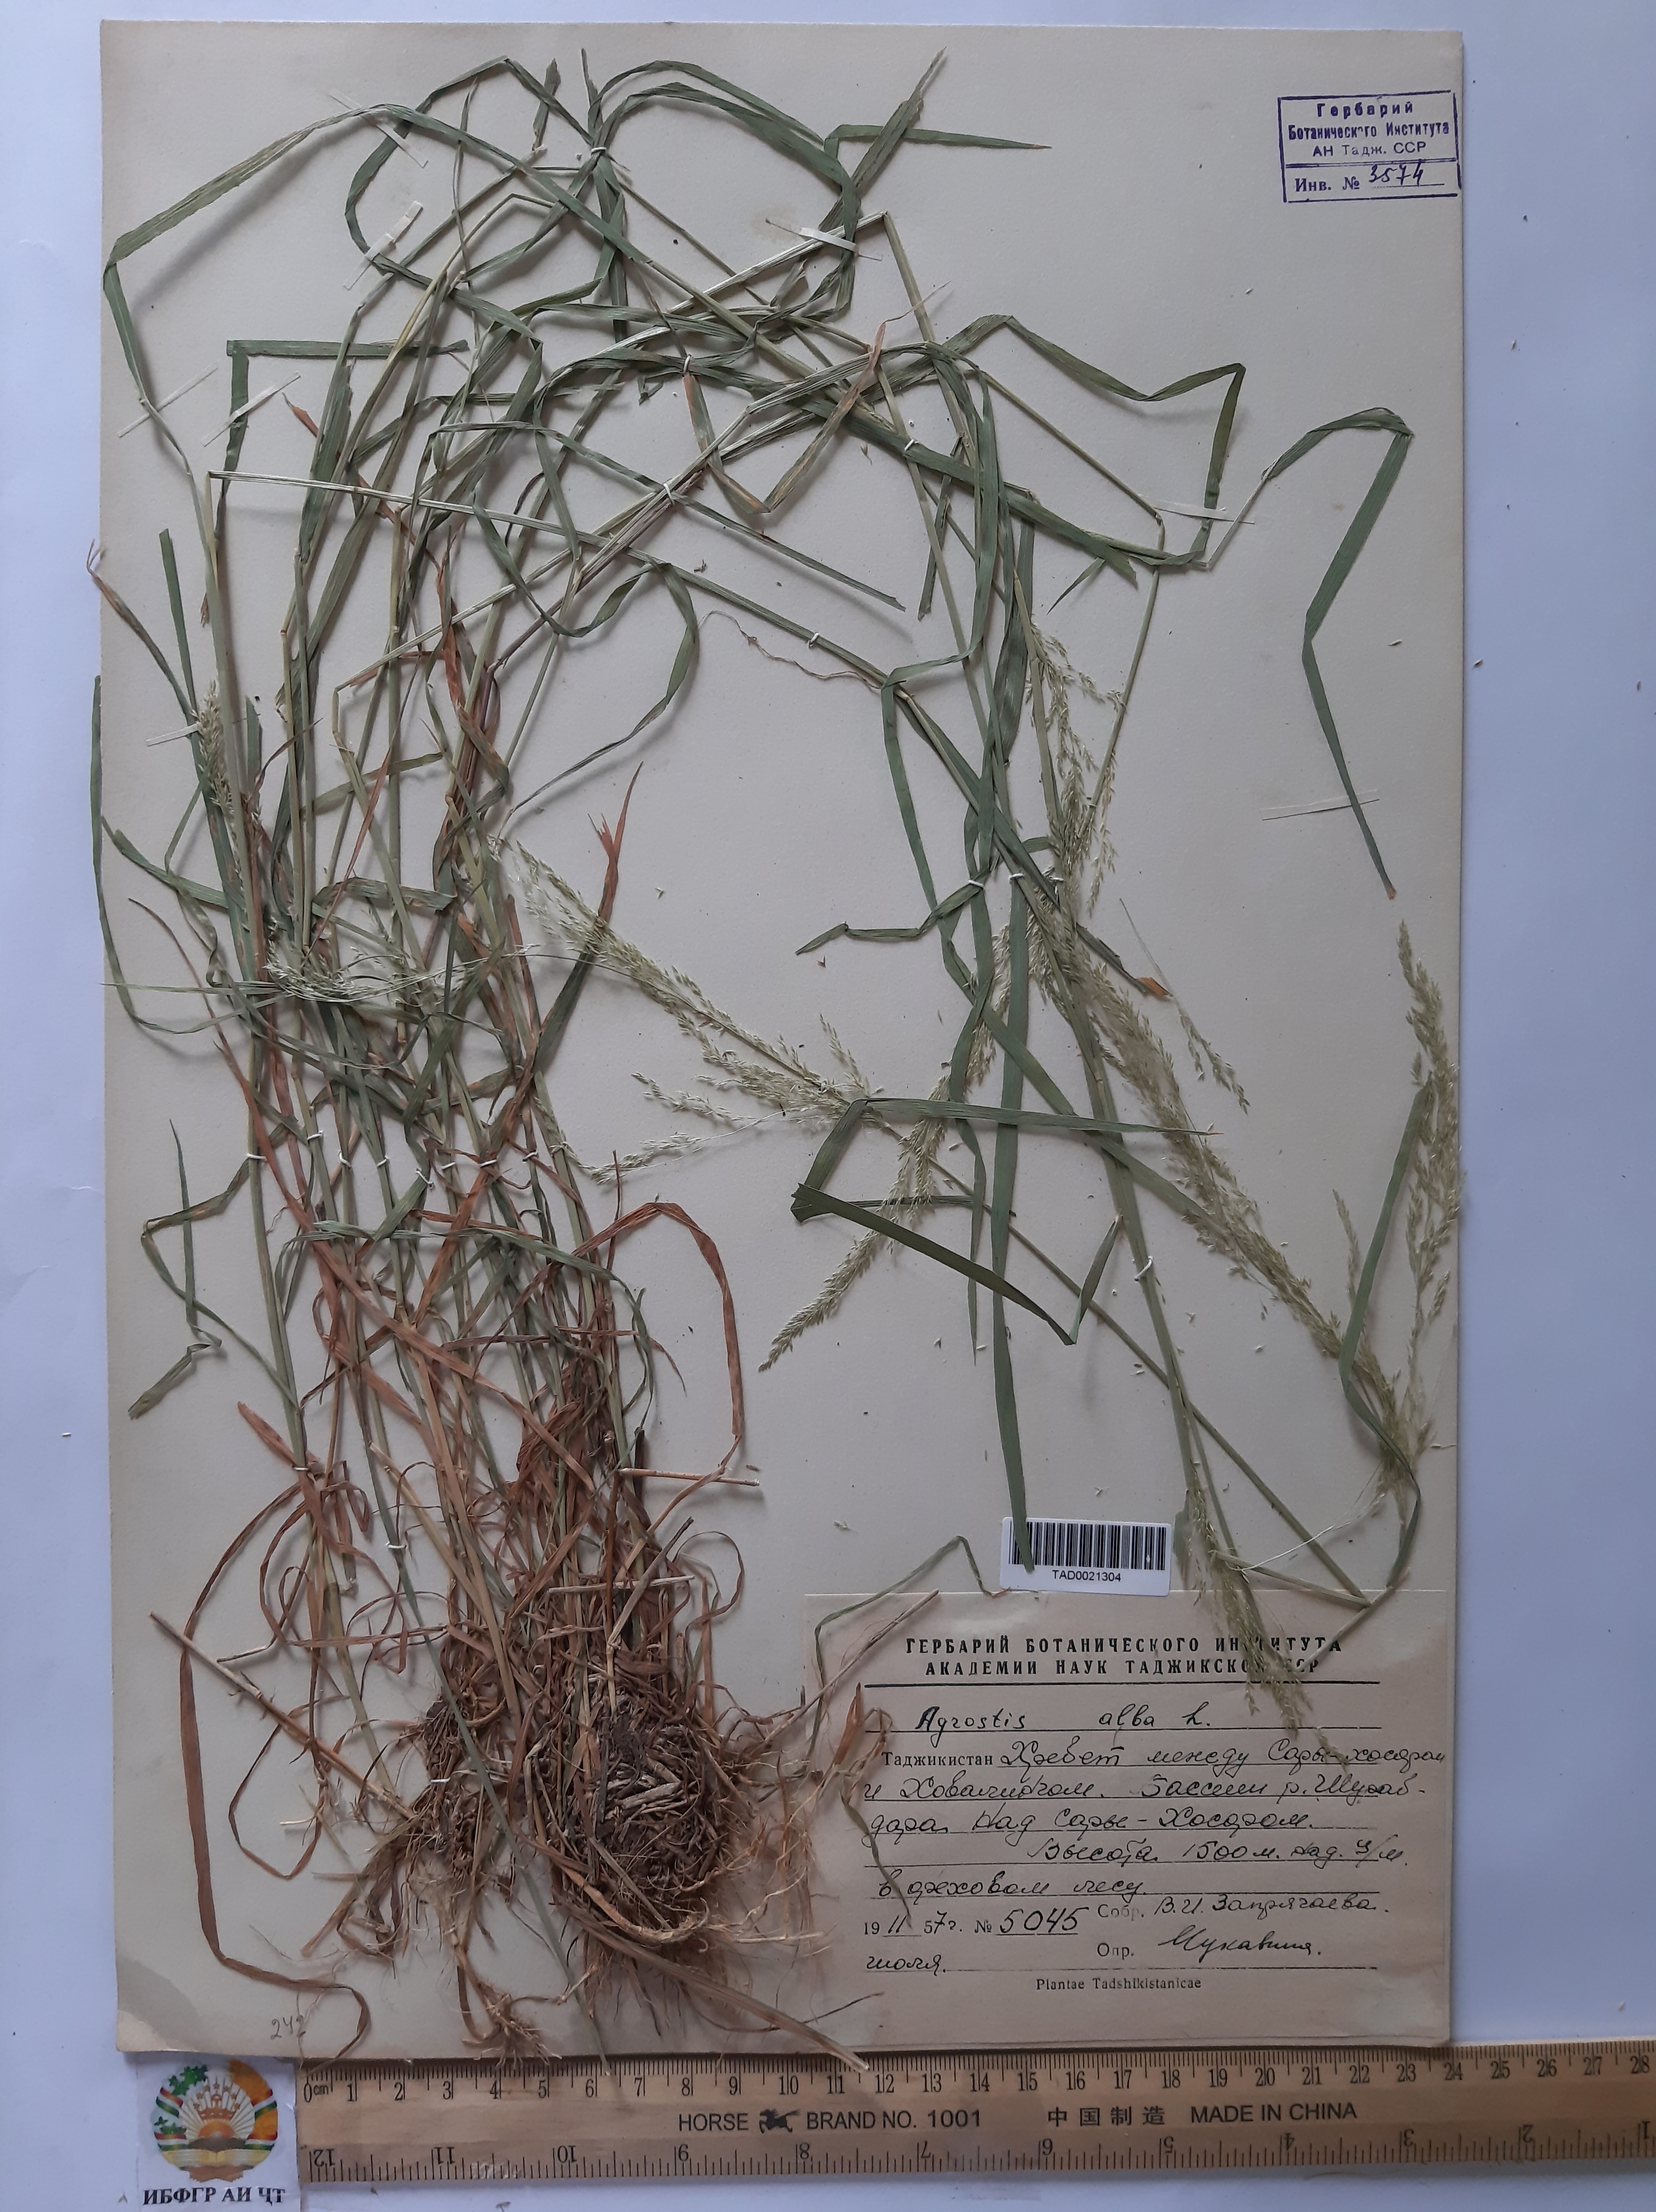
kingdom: Plantae
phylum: Tracheophyta
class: Liliopsida
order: Poales
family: Poaceae
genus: Poa
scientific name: Poa nemoralis
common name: Wood bluegrass
